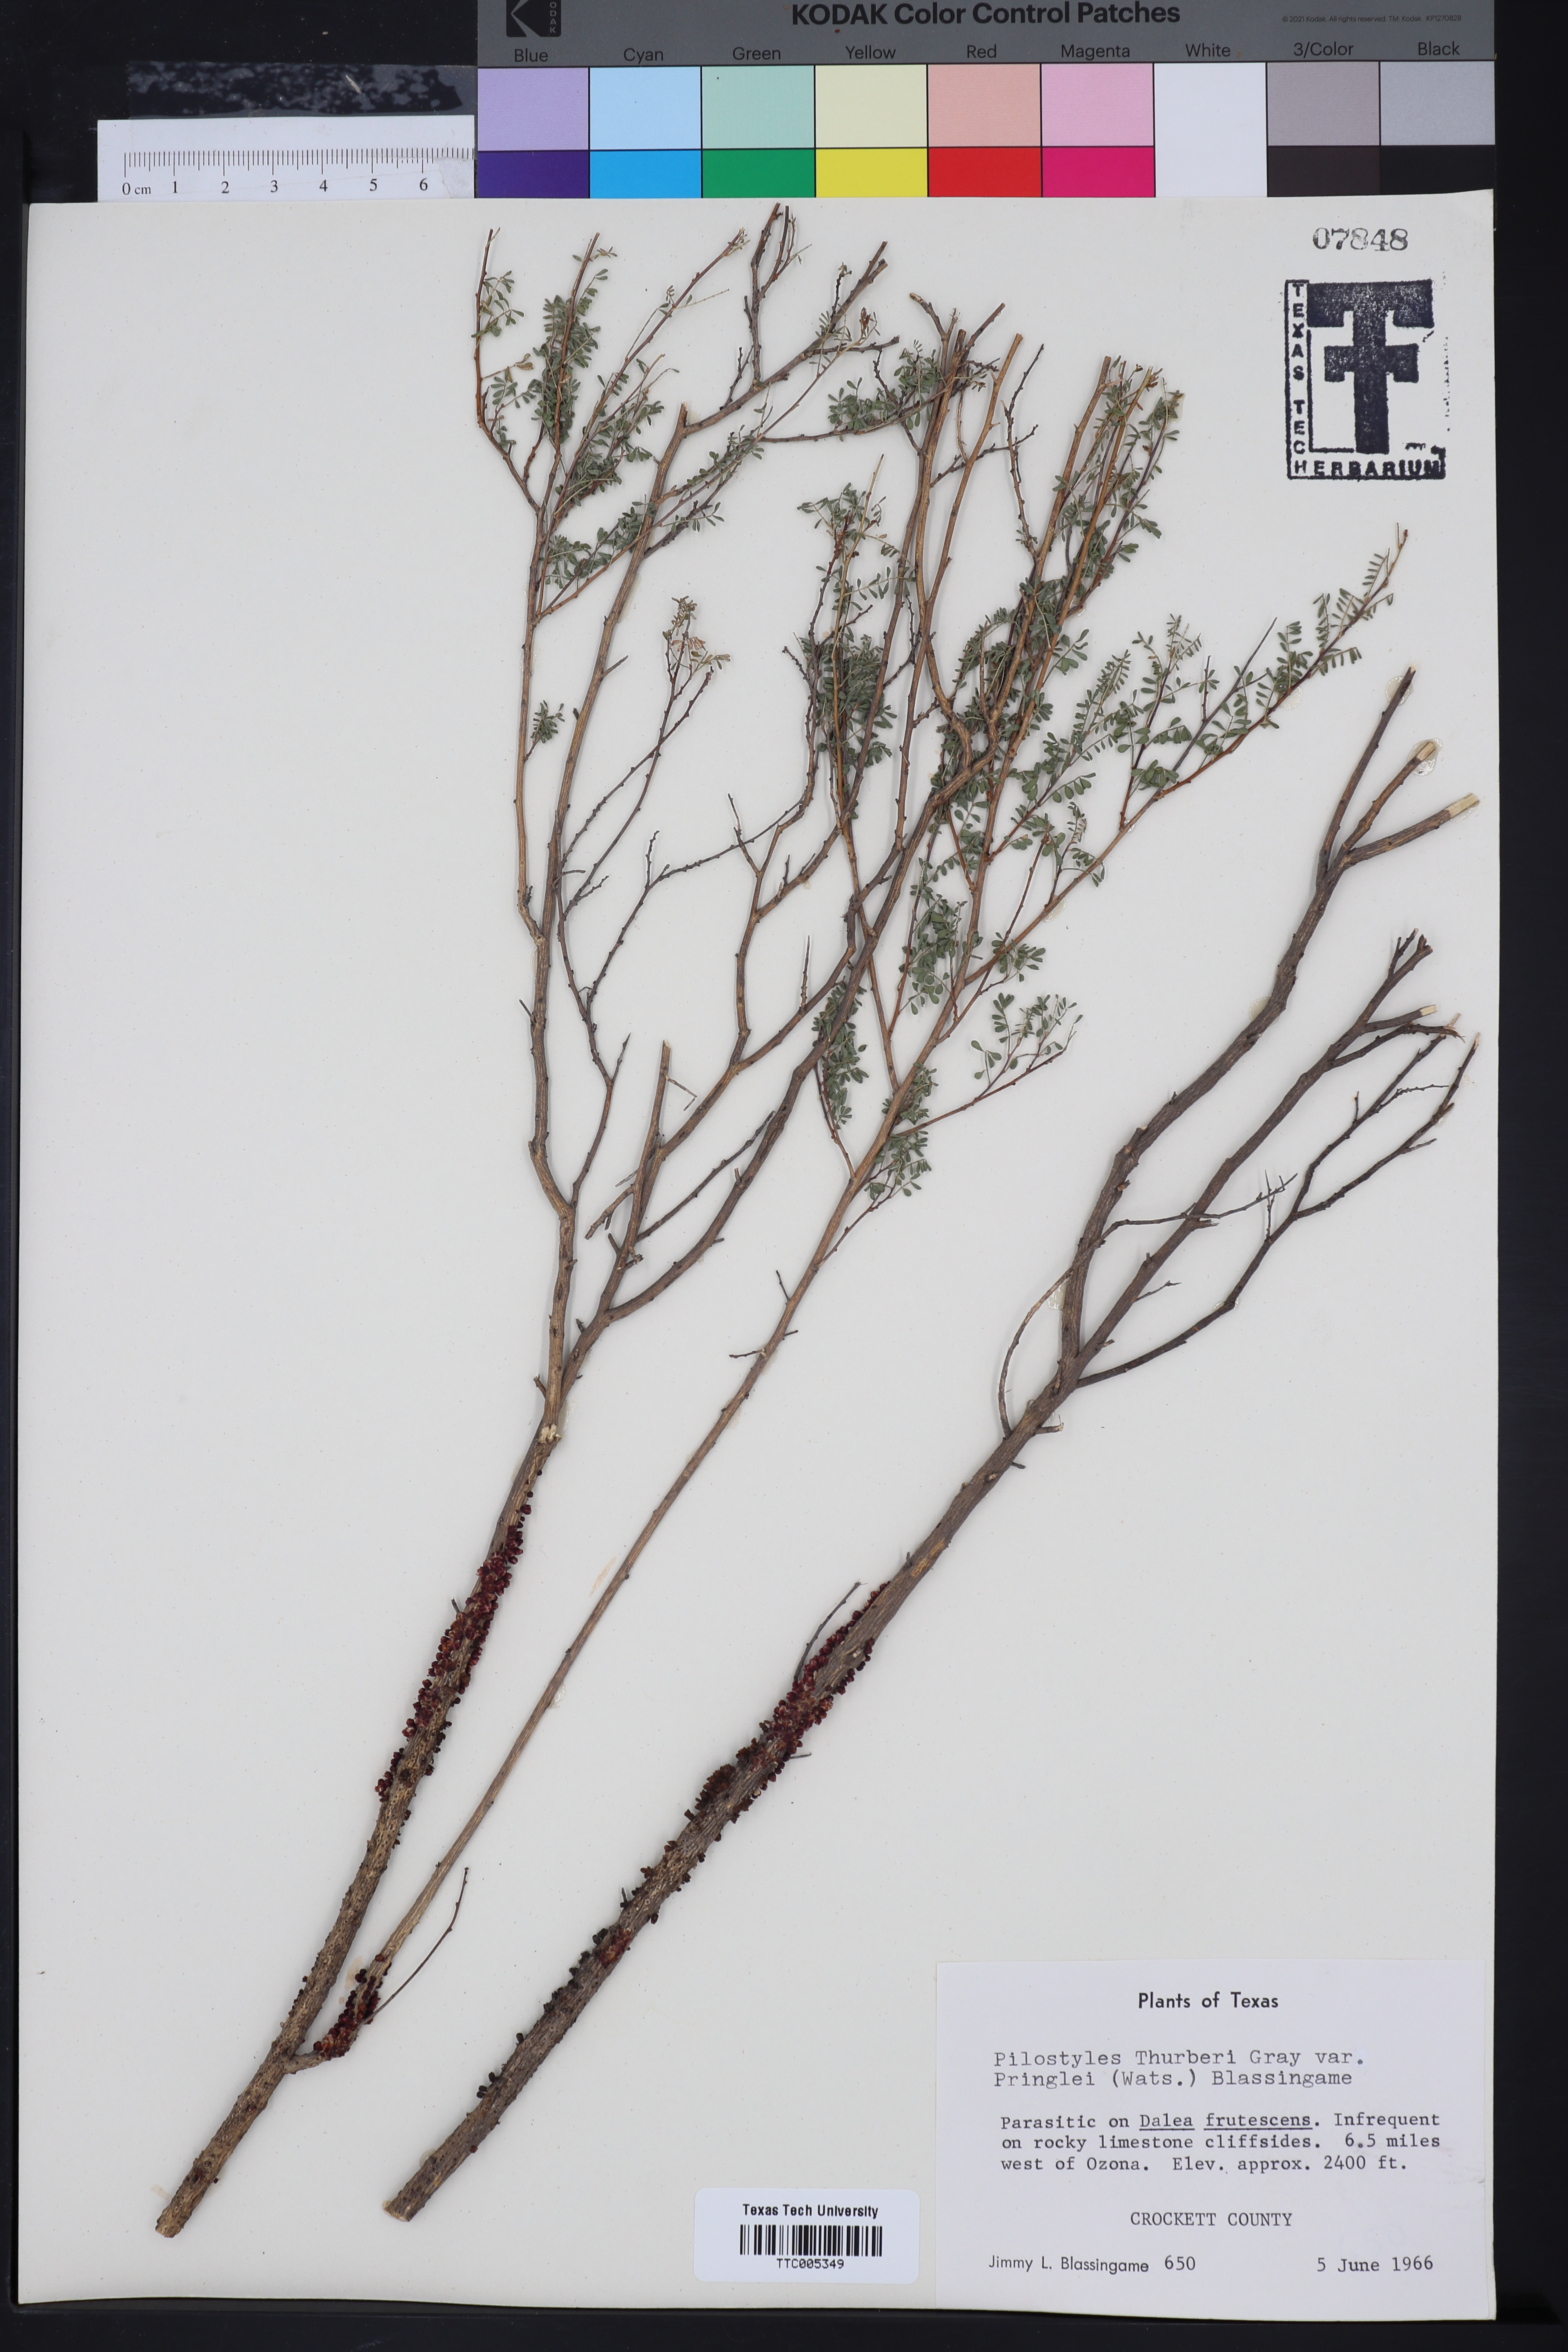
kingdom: Plantae
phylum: Tracheophyta
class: Magnoliopsida
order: Cucurbitales
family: Apodanthaceae
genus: Pilostyles
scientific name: Pilostyles thurberi
